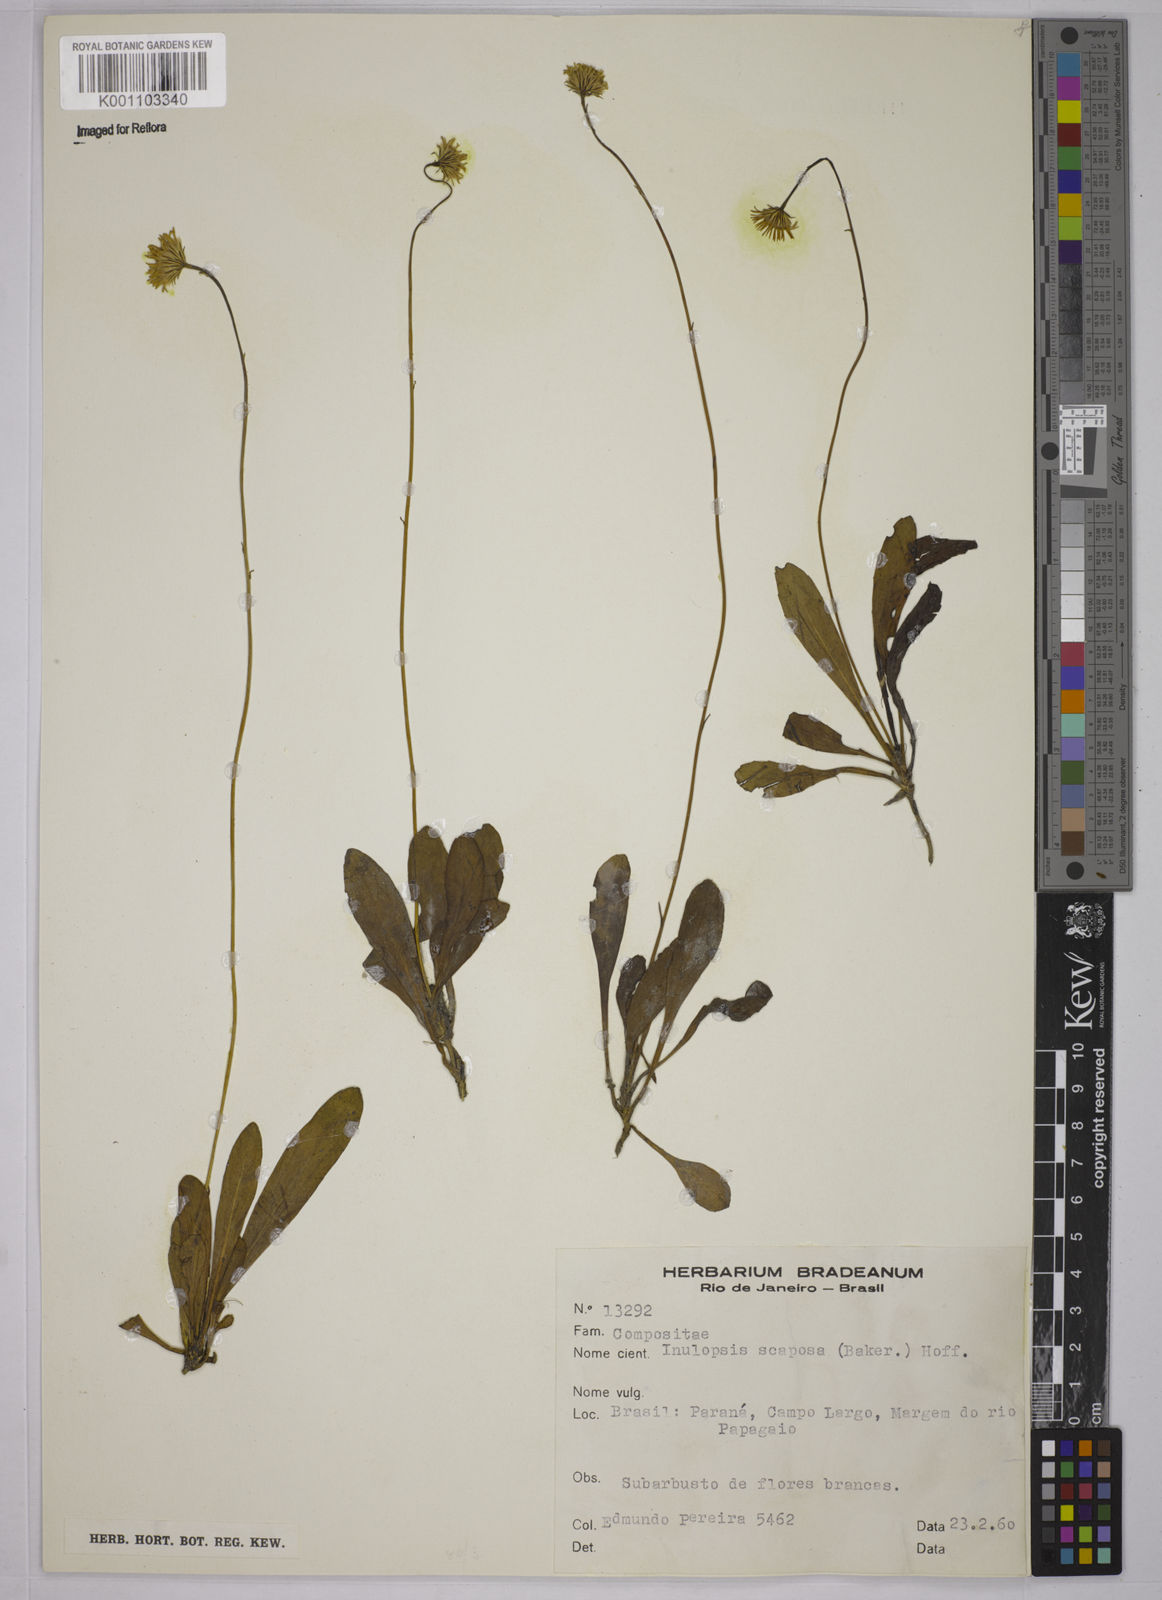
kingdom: Plantae
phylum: Tracheophyta
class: Magnoliopsida
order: Asterales
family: Asteraceae
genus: Inulopsis
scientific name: Inulopsis scaposa
